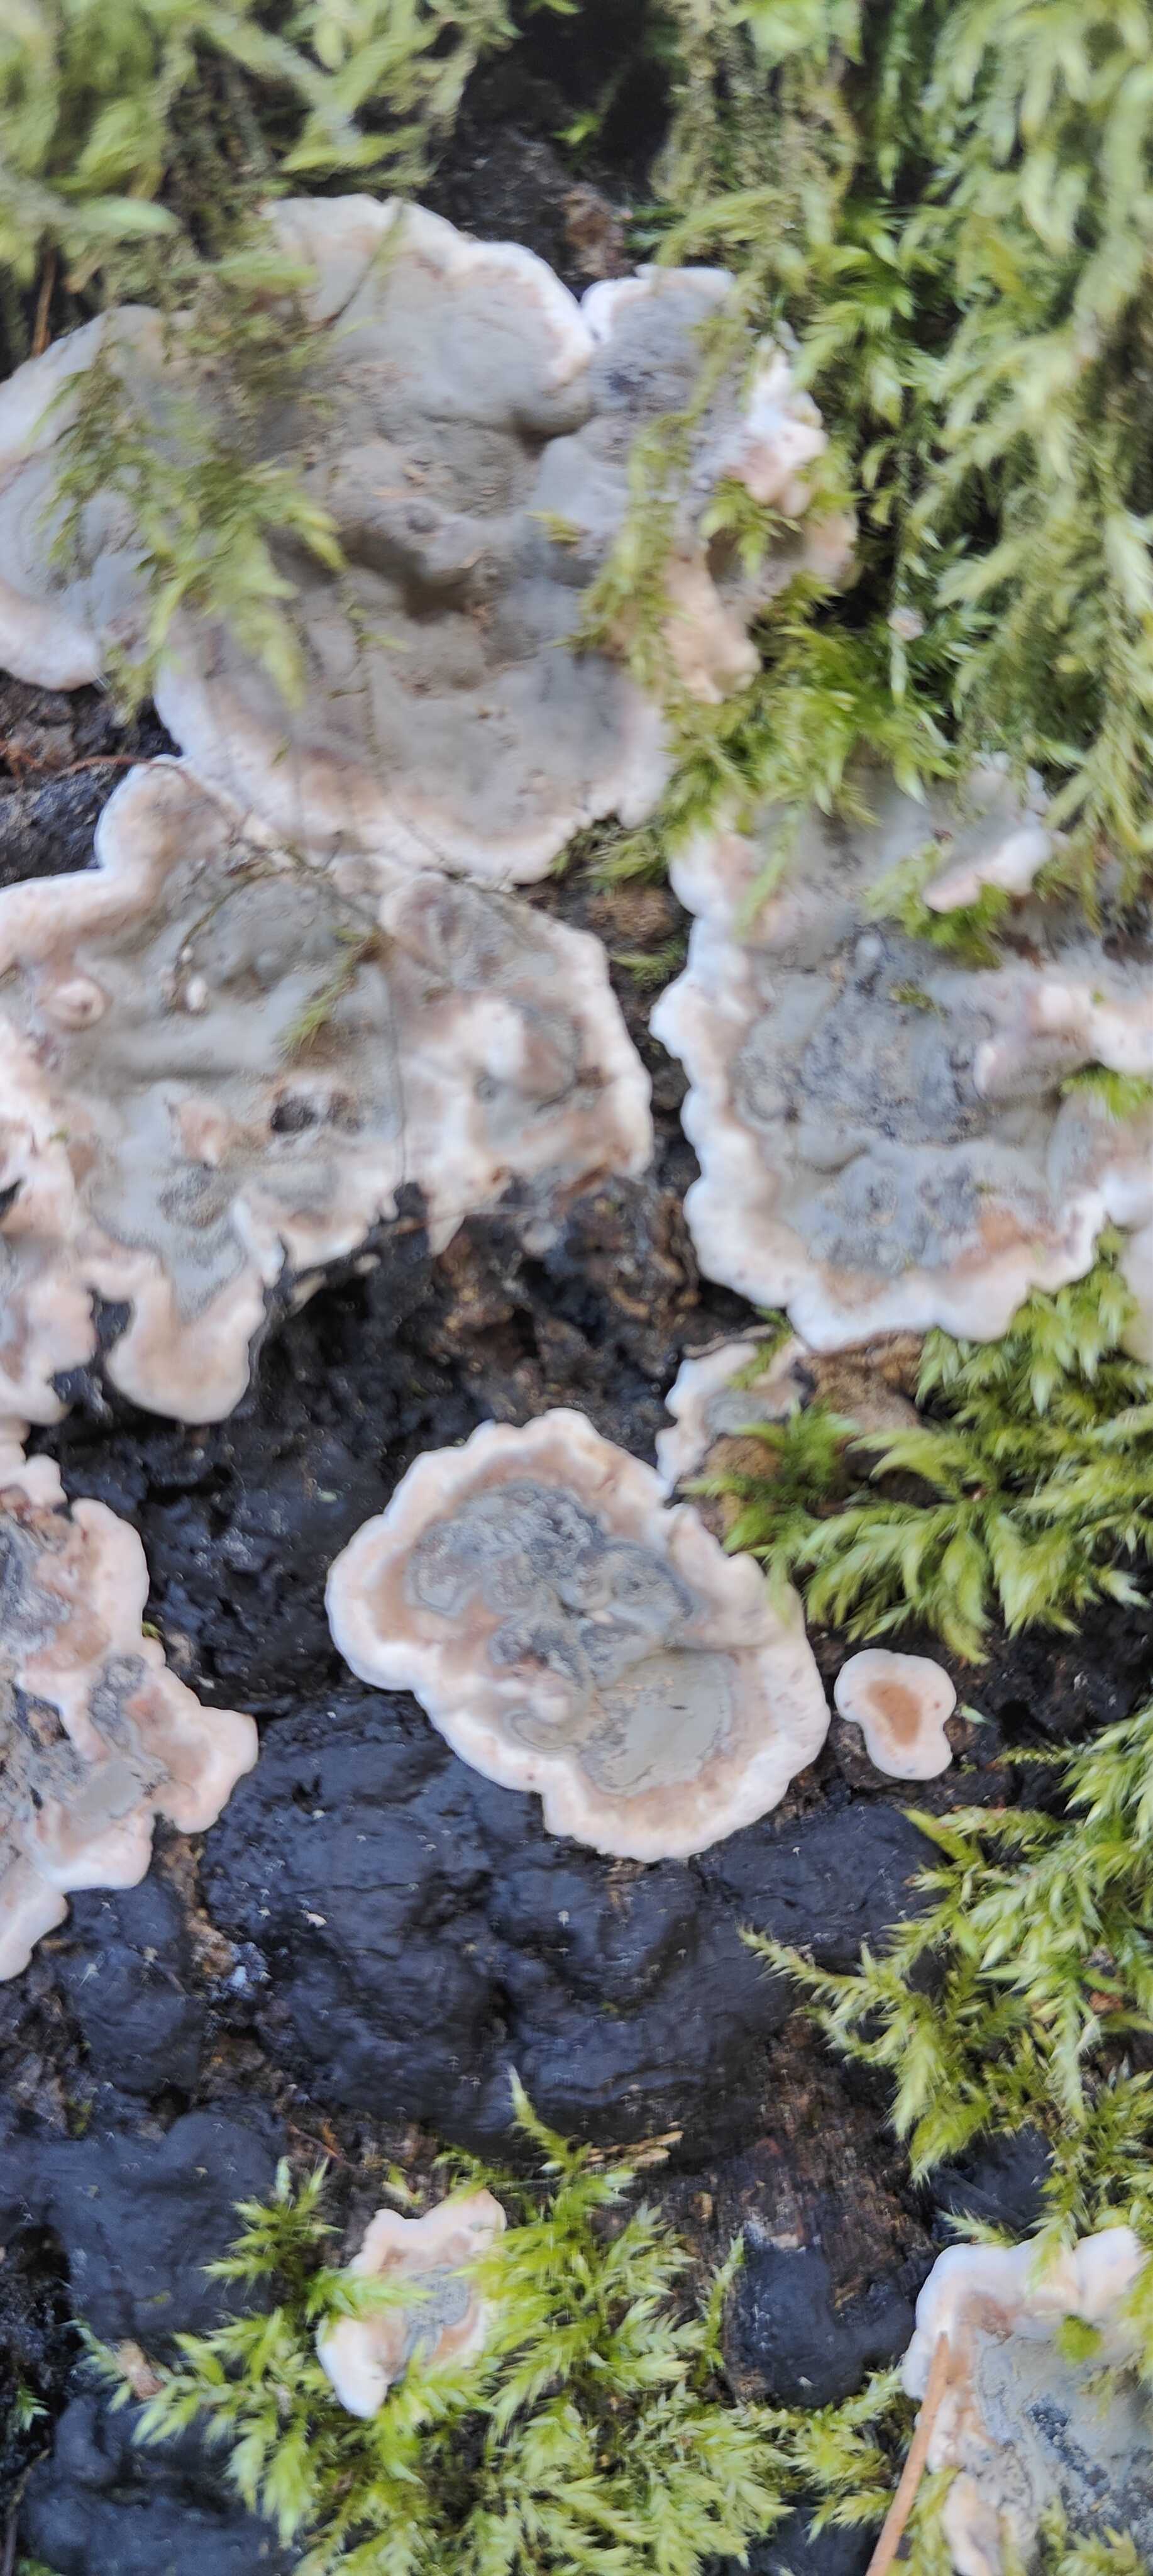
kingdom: Fungi
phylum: Ascomycota
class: Sordariomycetes
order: Xylariales
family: Xylariaceae
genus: Kretzschmaria
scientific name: Kretzschmaria deusta
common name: stor kulsvamp
